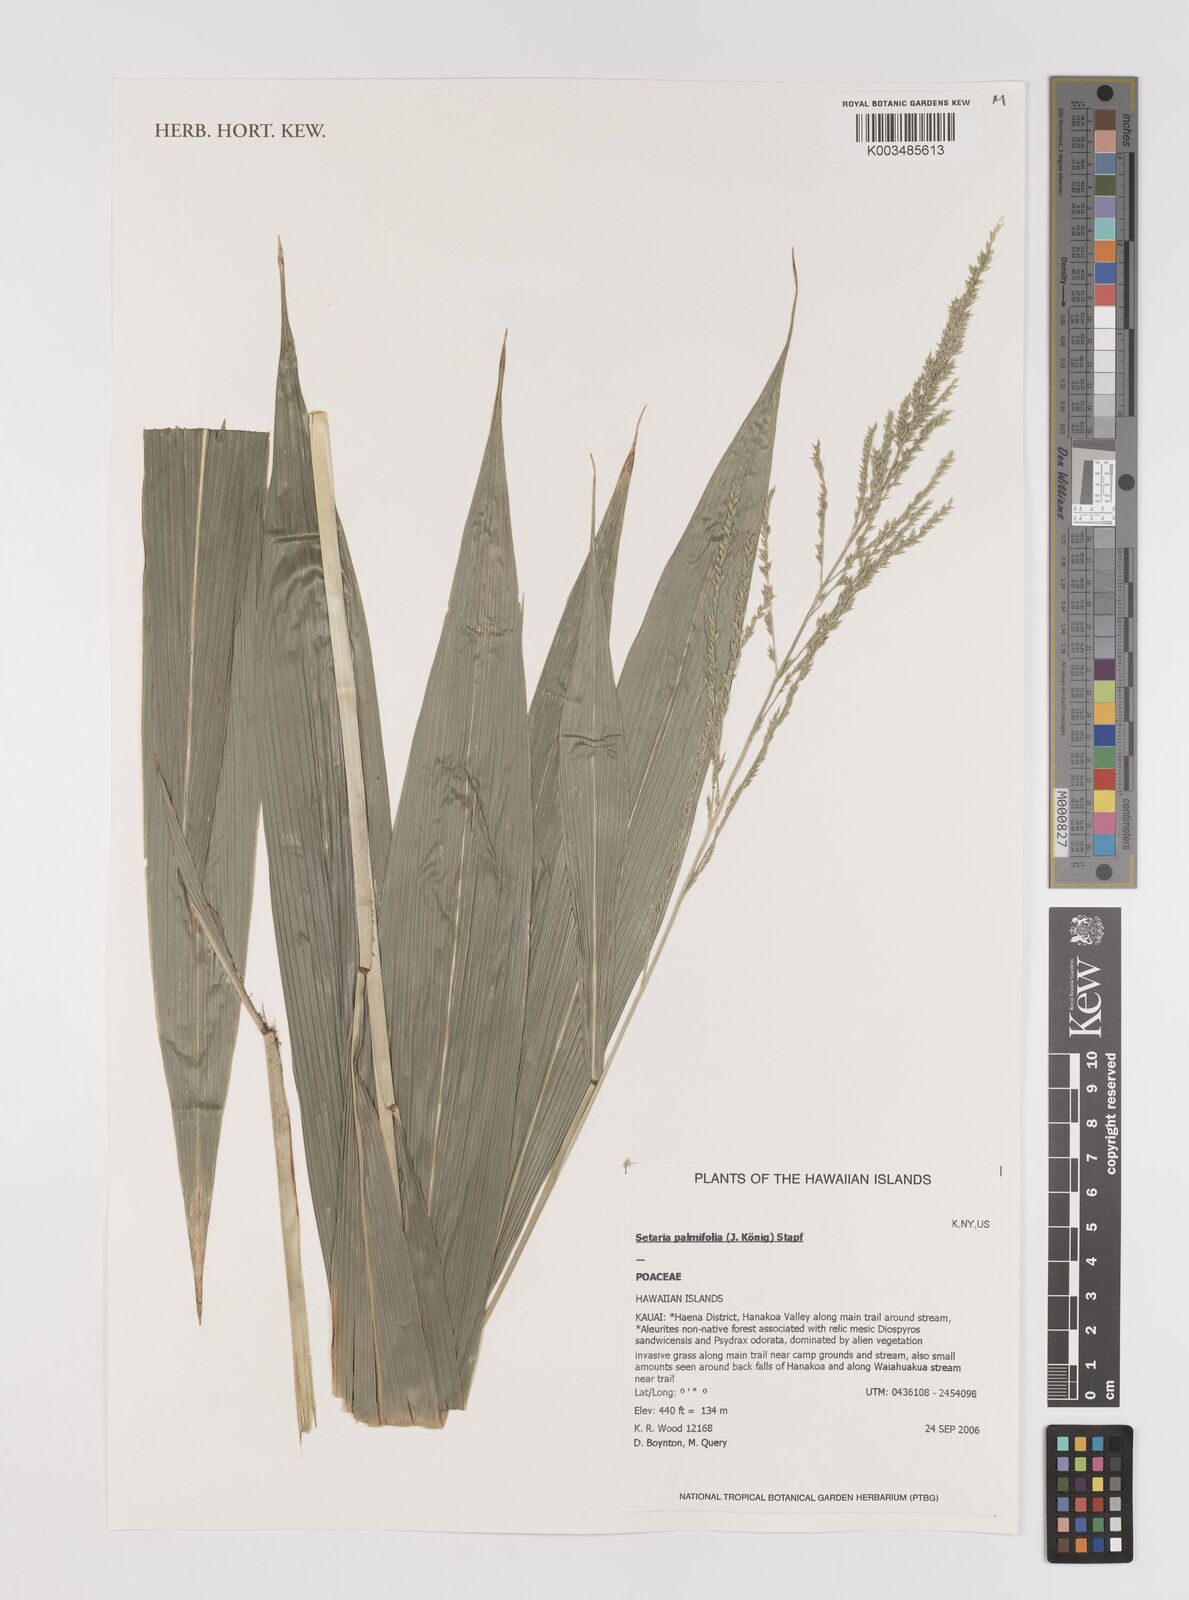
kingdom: Plantae
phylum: Tracheophyta
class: Liliopsida
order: Poales
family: Poaceae
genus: Setaria
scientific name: Setaria palmifolia
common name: Broadleaved bristlegrass
